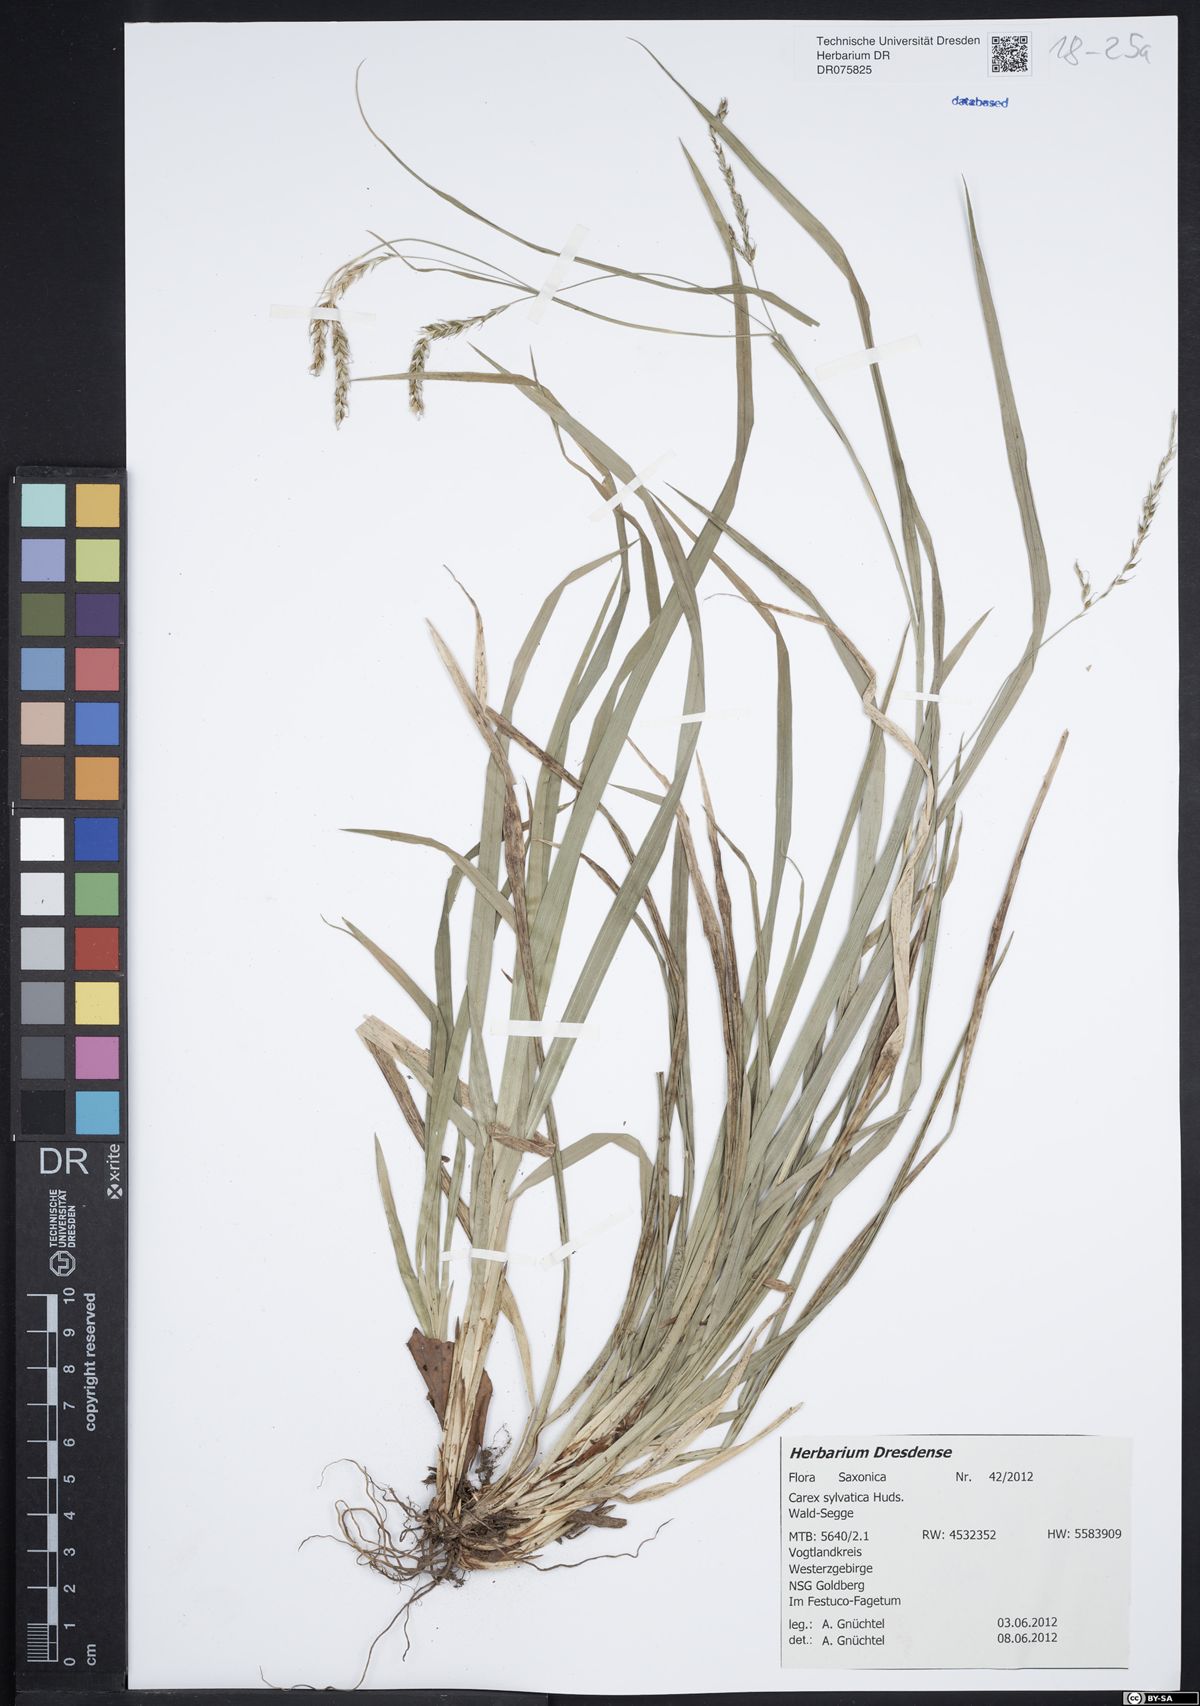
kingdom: Plantae
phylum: Tracheophyta
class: Liliopsida
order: Poales
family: Cyperaceae
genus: Carex
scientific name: Carex sylvatica
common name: Wood-sedge
